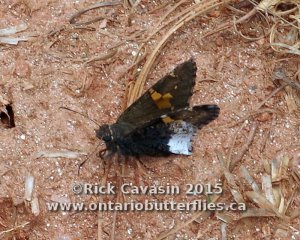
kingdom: Animalia
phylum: Arthropoda
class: Insecta
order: Lepidoptera
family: Hesperiidae
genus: Achalarus
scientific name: Achalarus lyciades
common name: Hoary Edge
